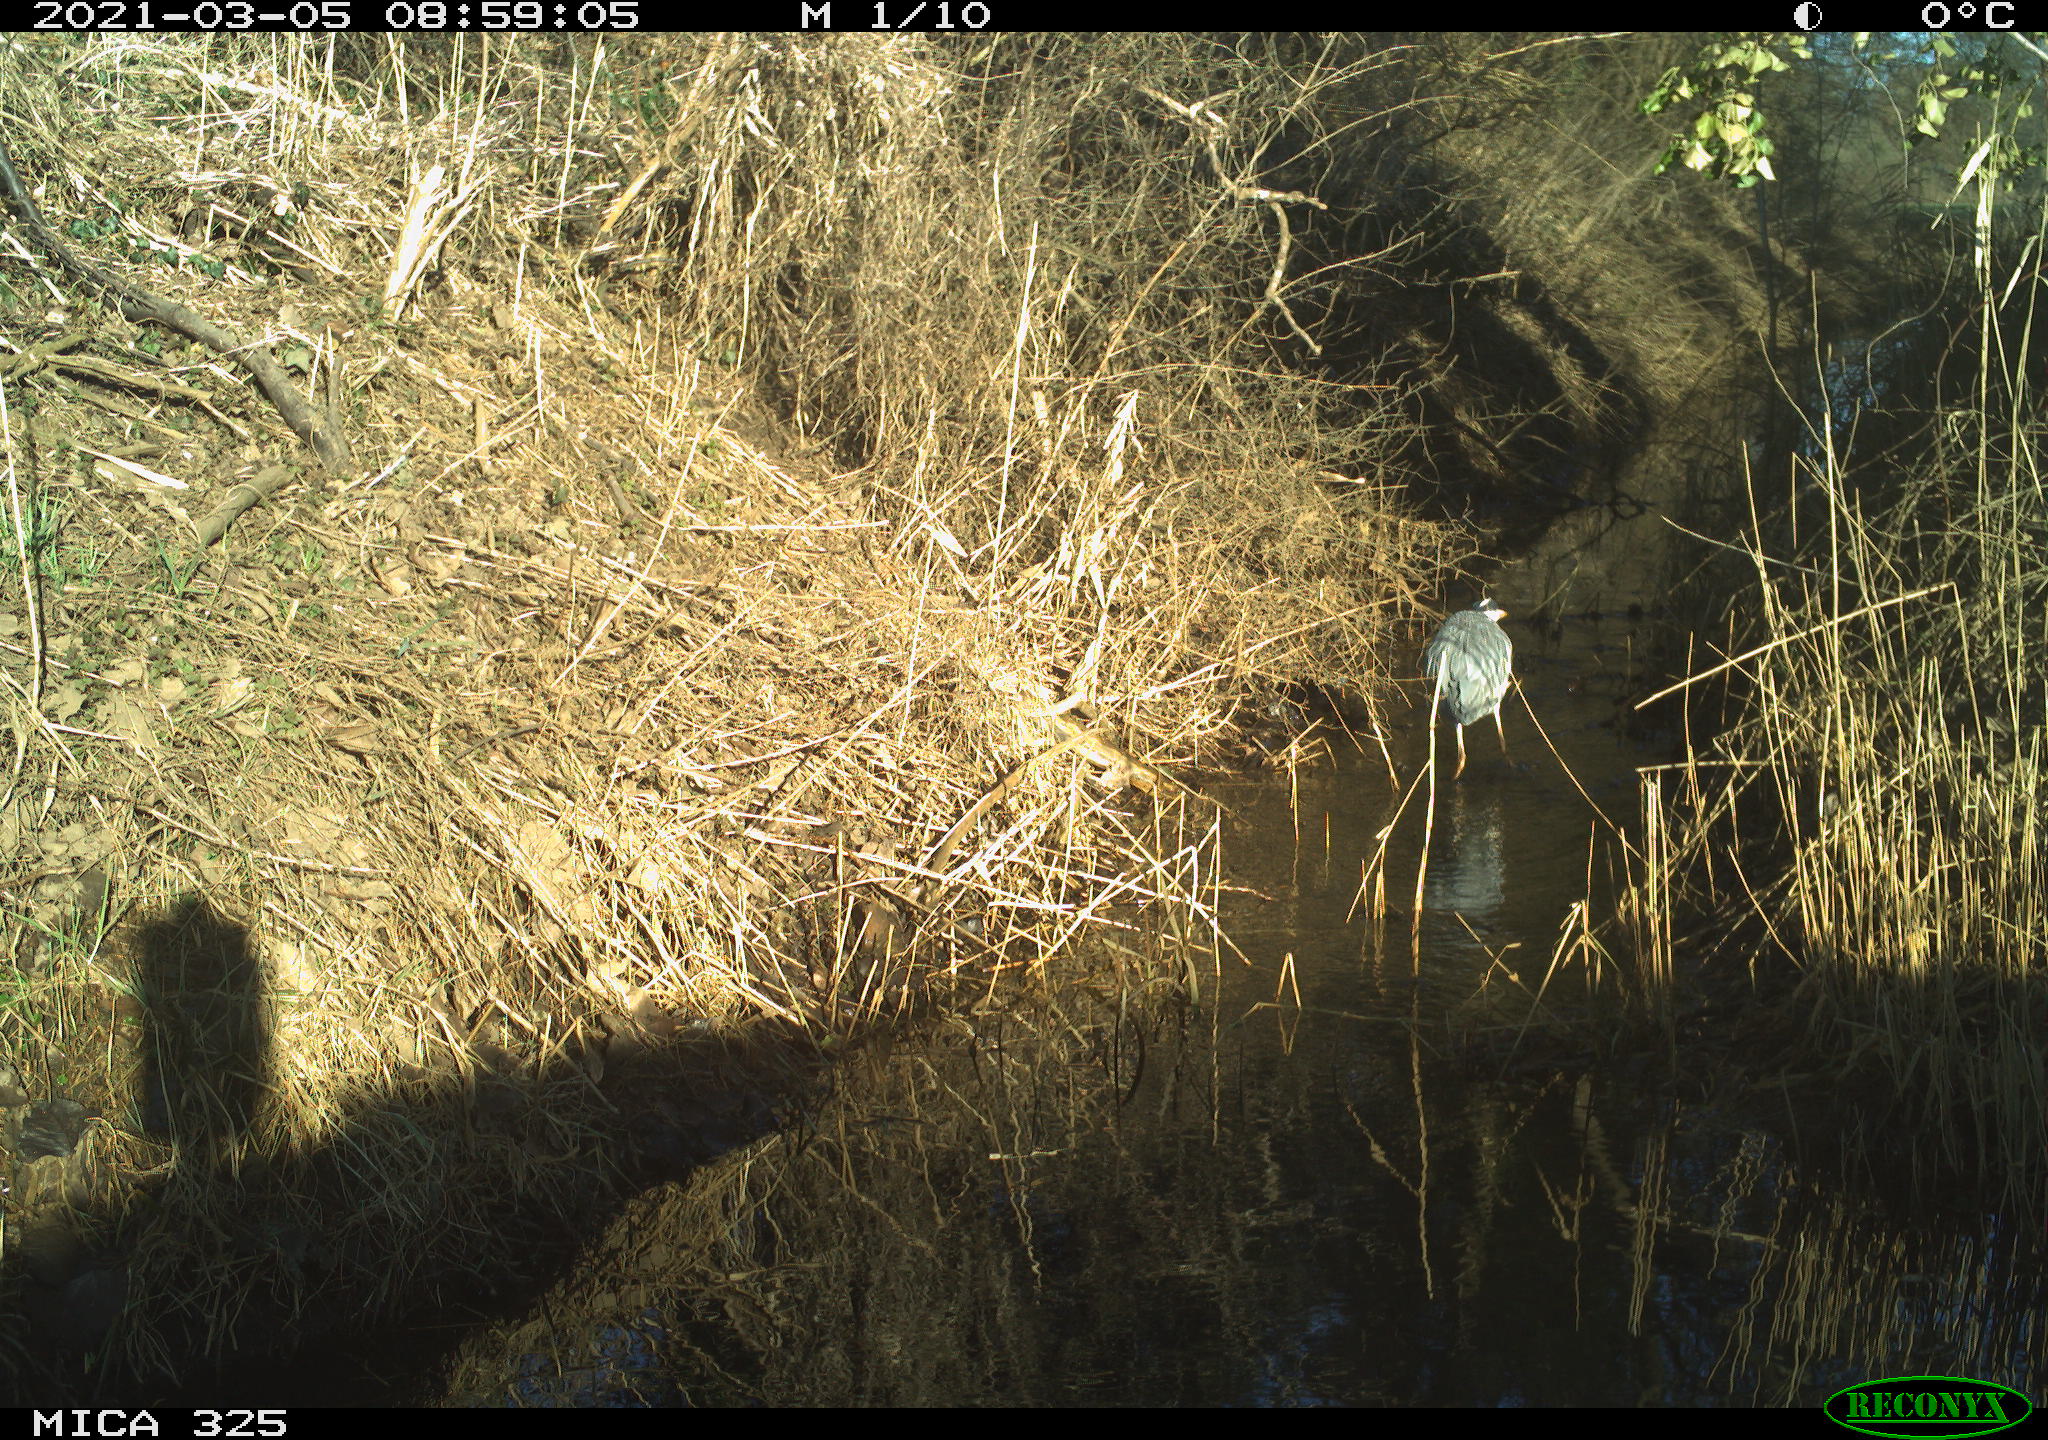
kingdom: Animalia
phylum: Chordata
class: Aves
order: Pelecaniformes
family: Ardeidae
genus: Ardea
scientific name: Ardea cinerea
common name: Grey heron
